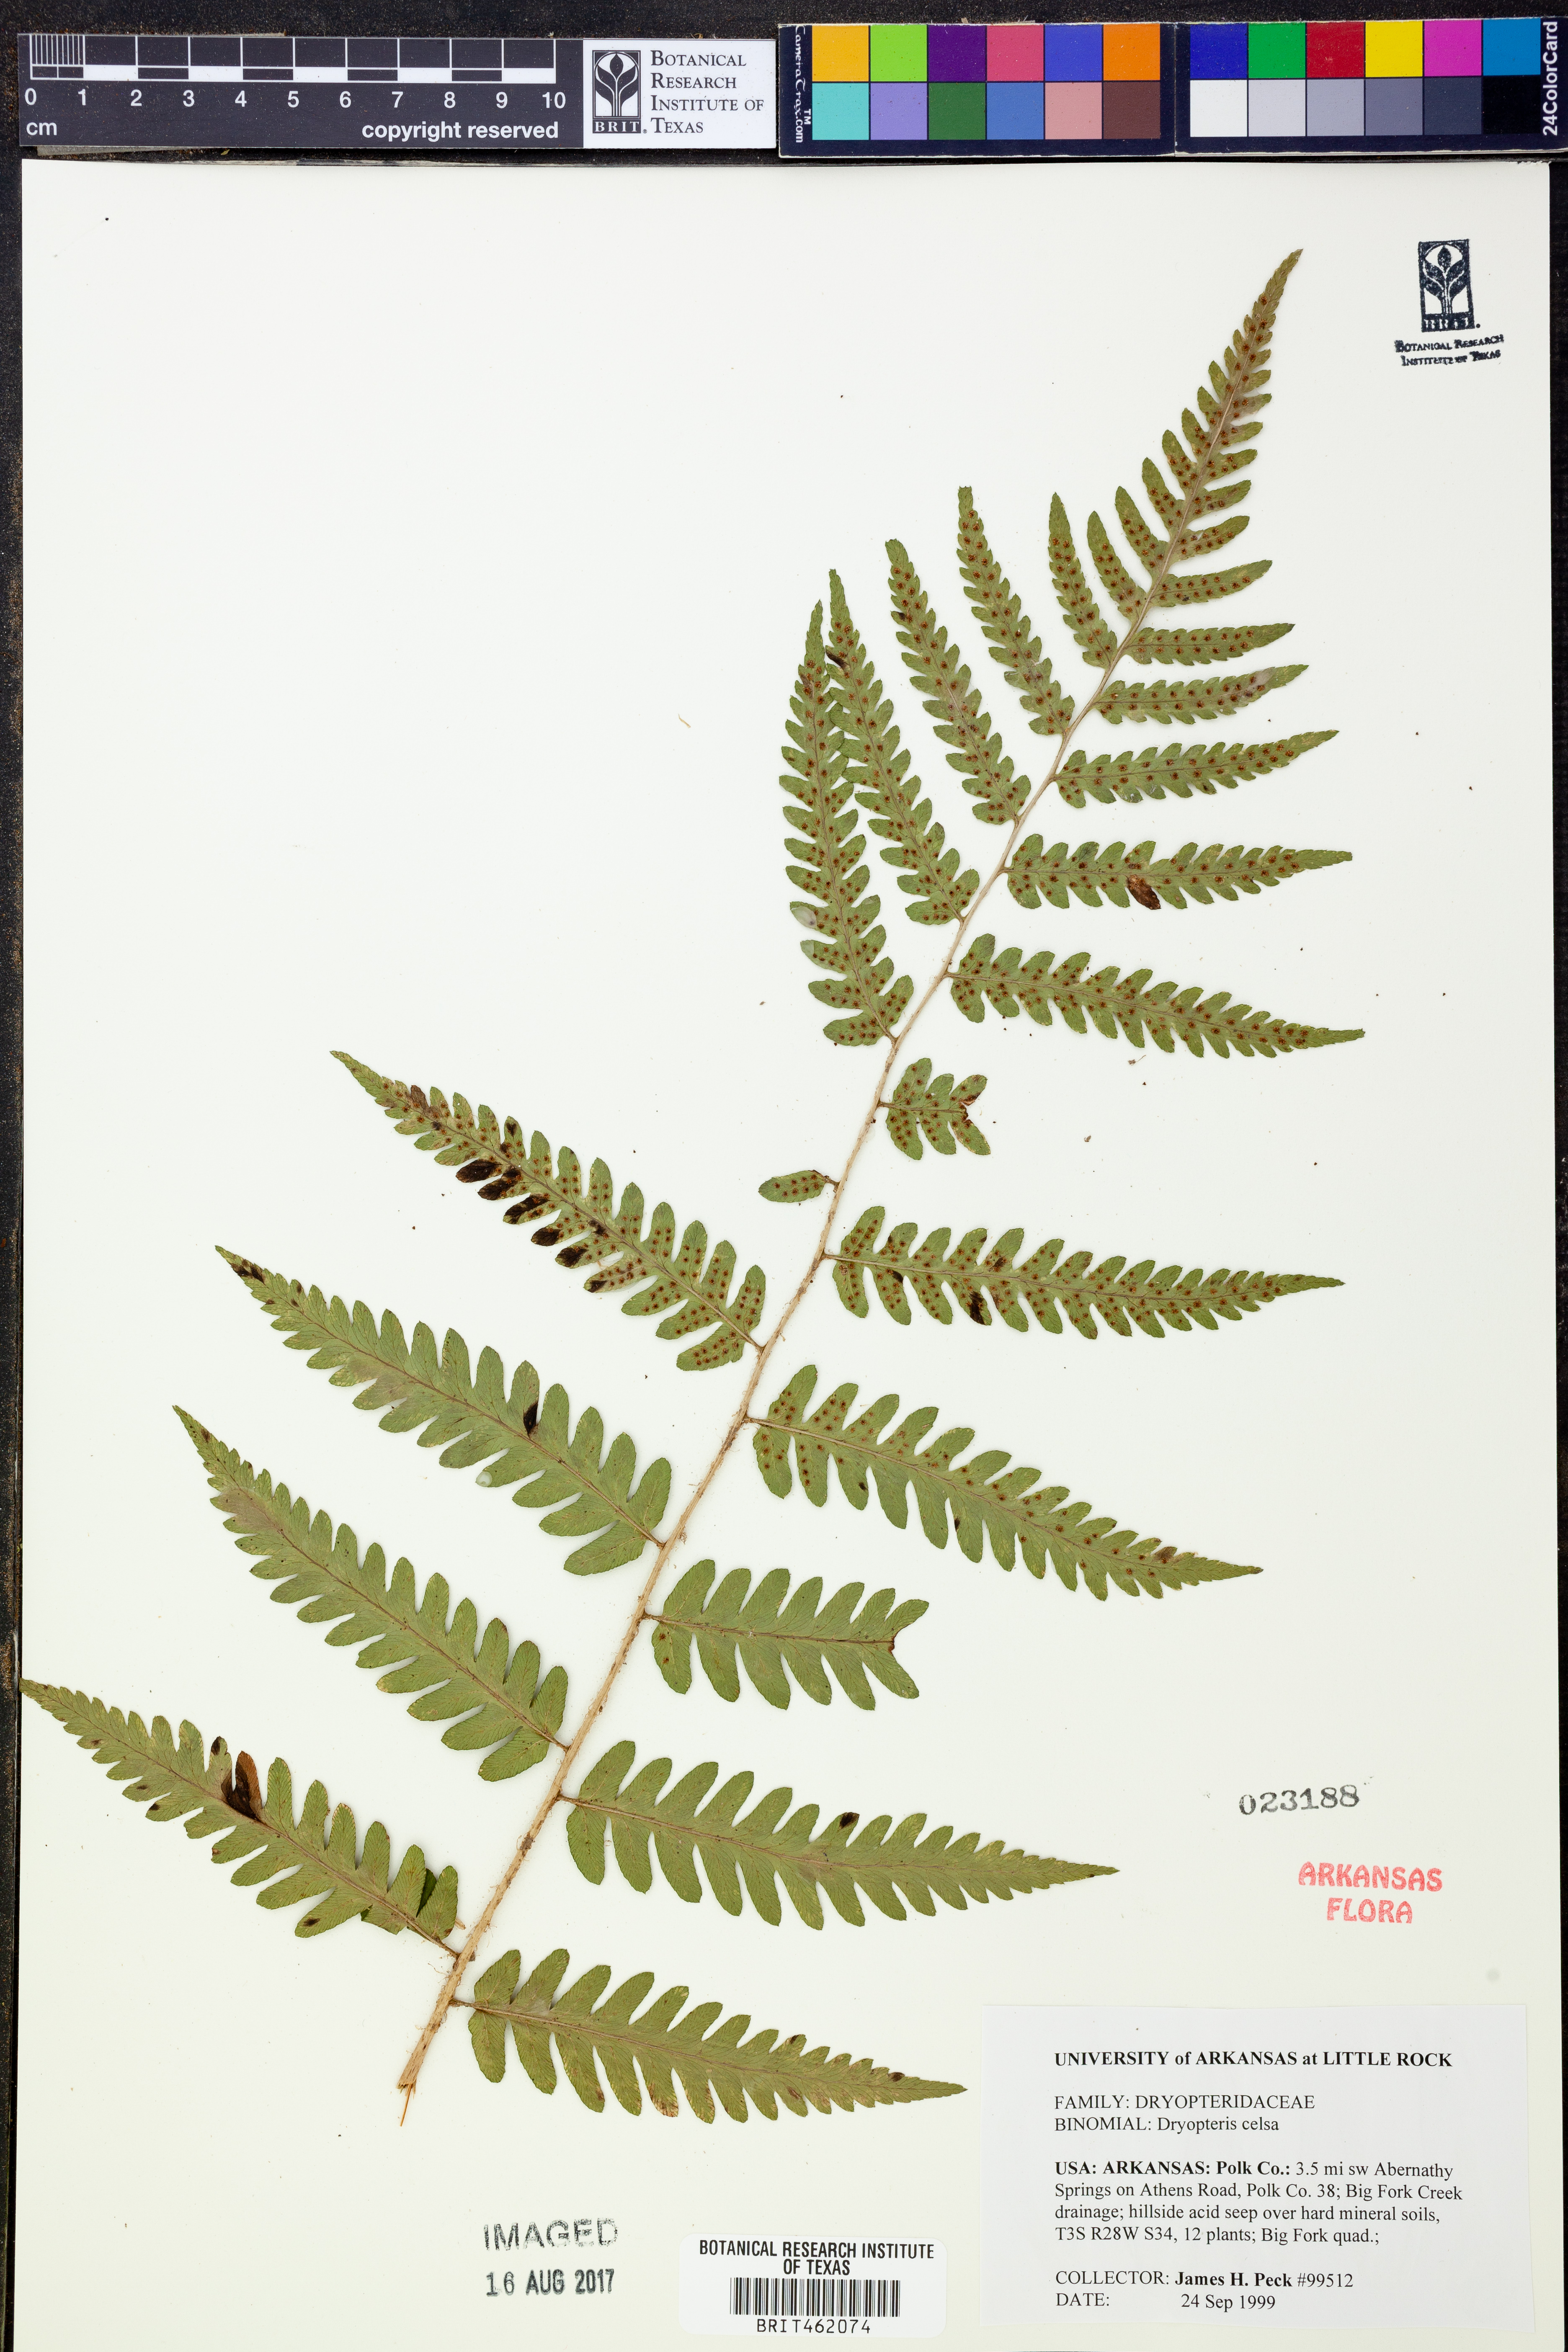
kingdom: Plantae
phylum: Tracheophyta
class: Polypodiopsida
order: Polypodiales
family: Dryopteridaceae
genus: Dryopteris
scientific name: Dryopteris celsa
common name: Log fern
